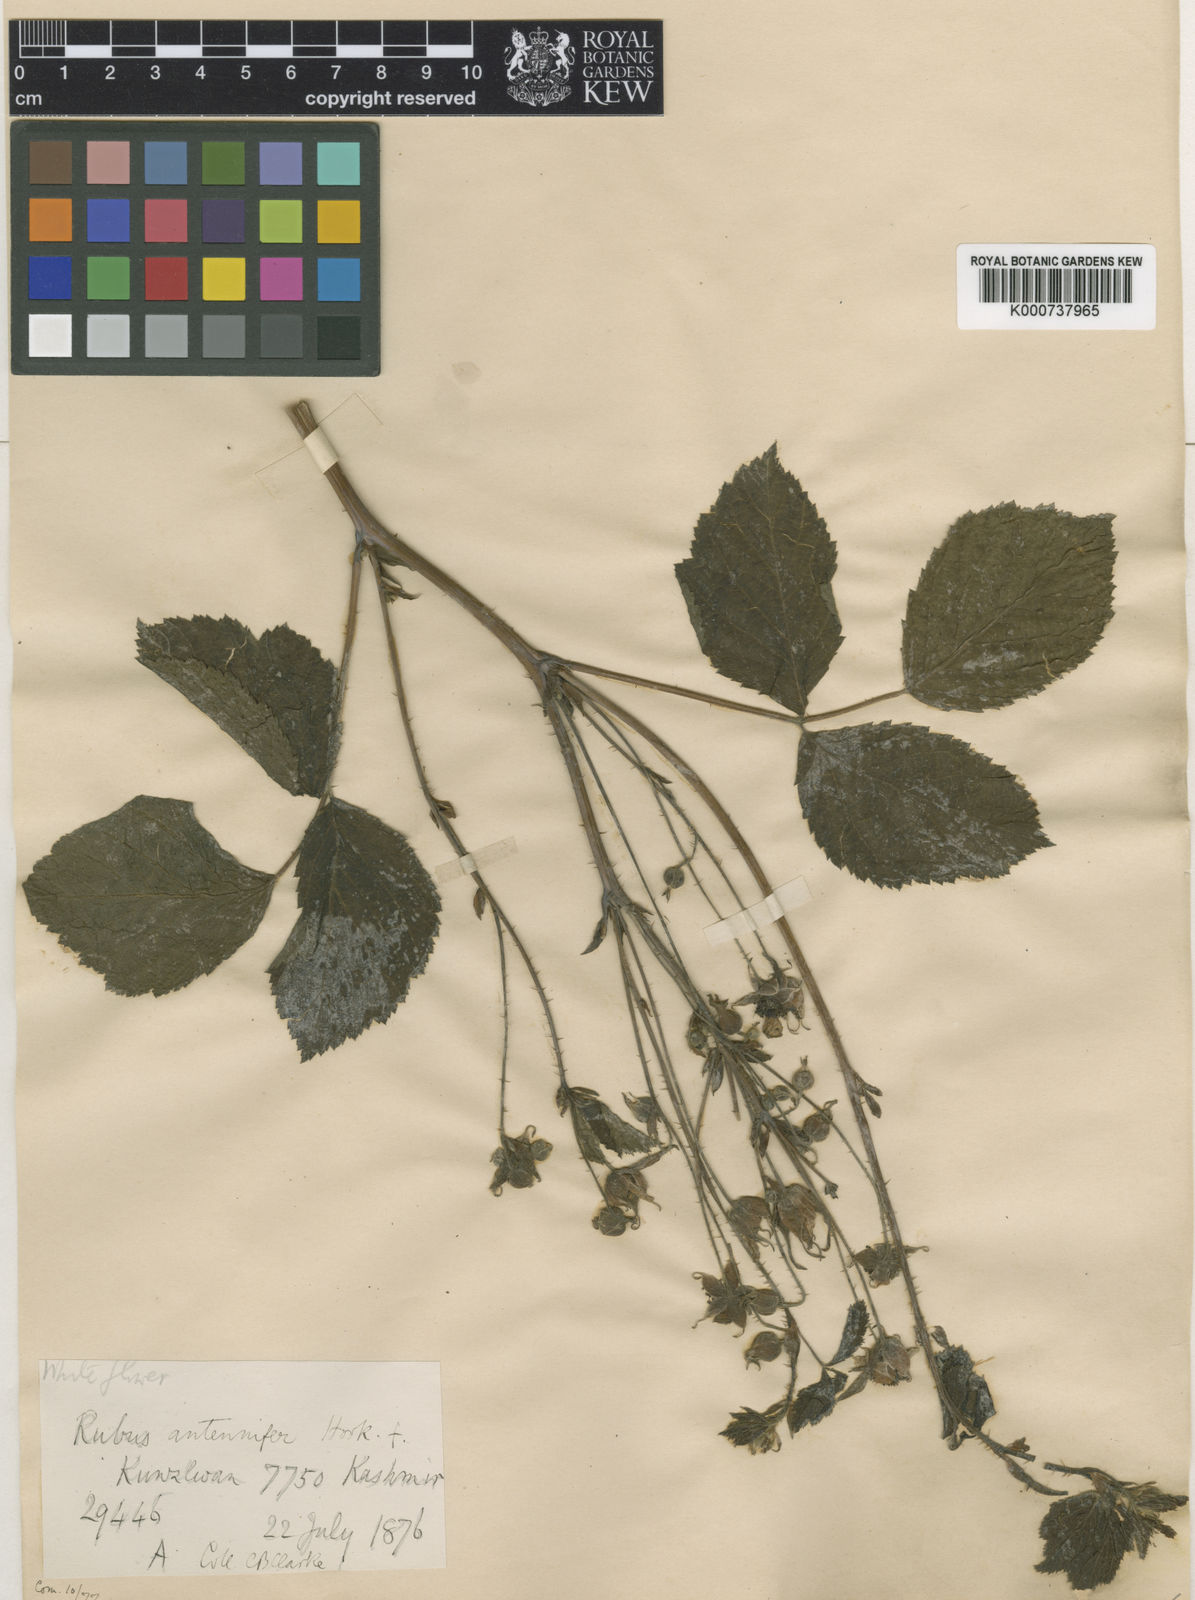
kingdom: Plantae
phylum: Tracheophyta
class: Magnoliopsida
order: Rosales
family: Rosaceae
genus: Rubus
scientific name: Rubus caesius
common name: Dewberry
